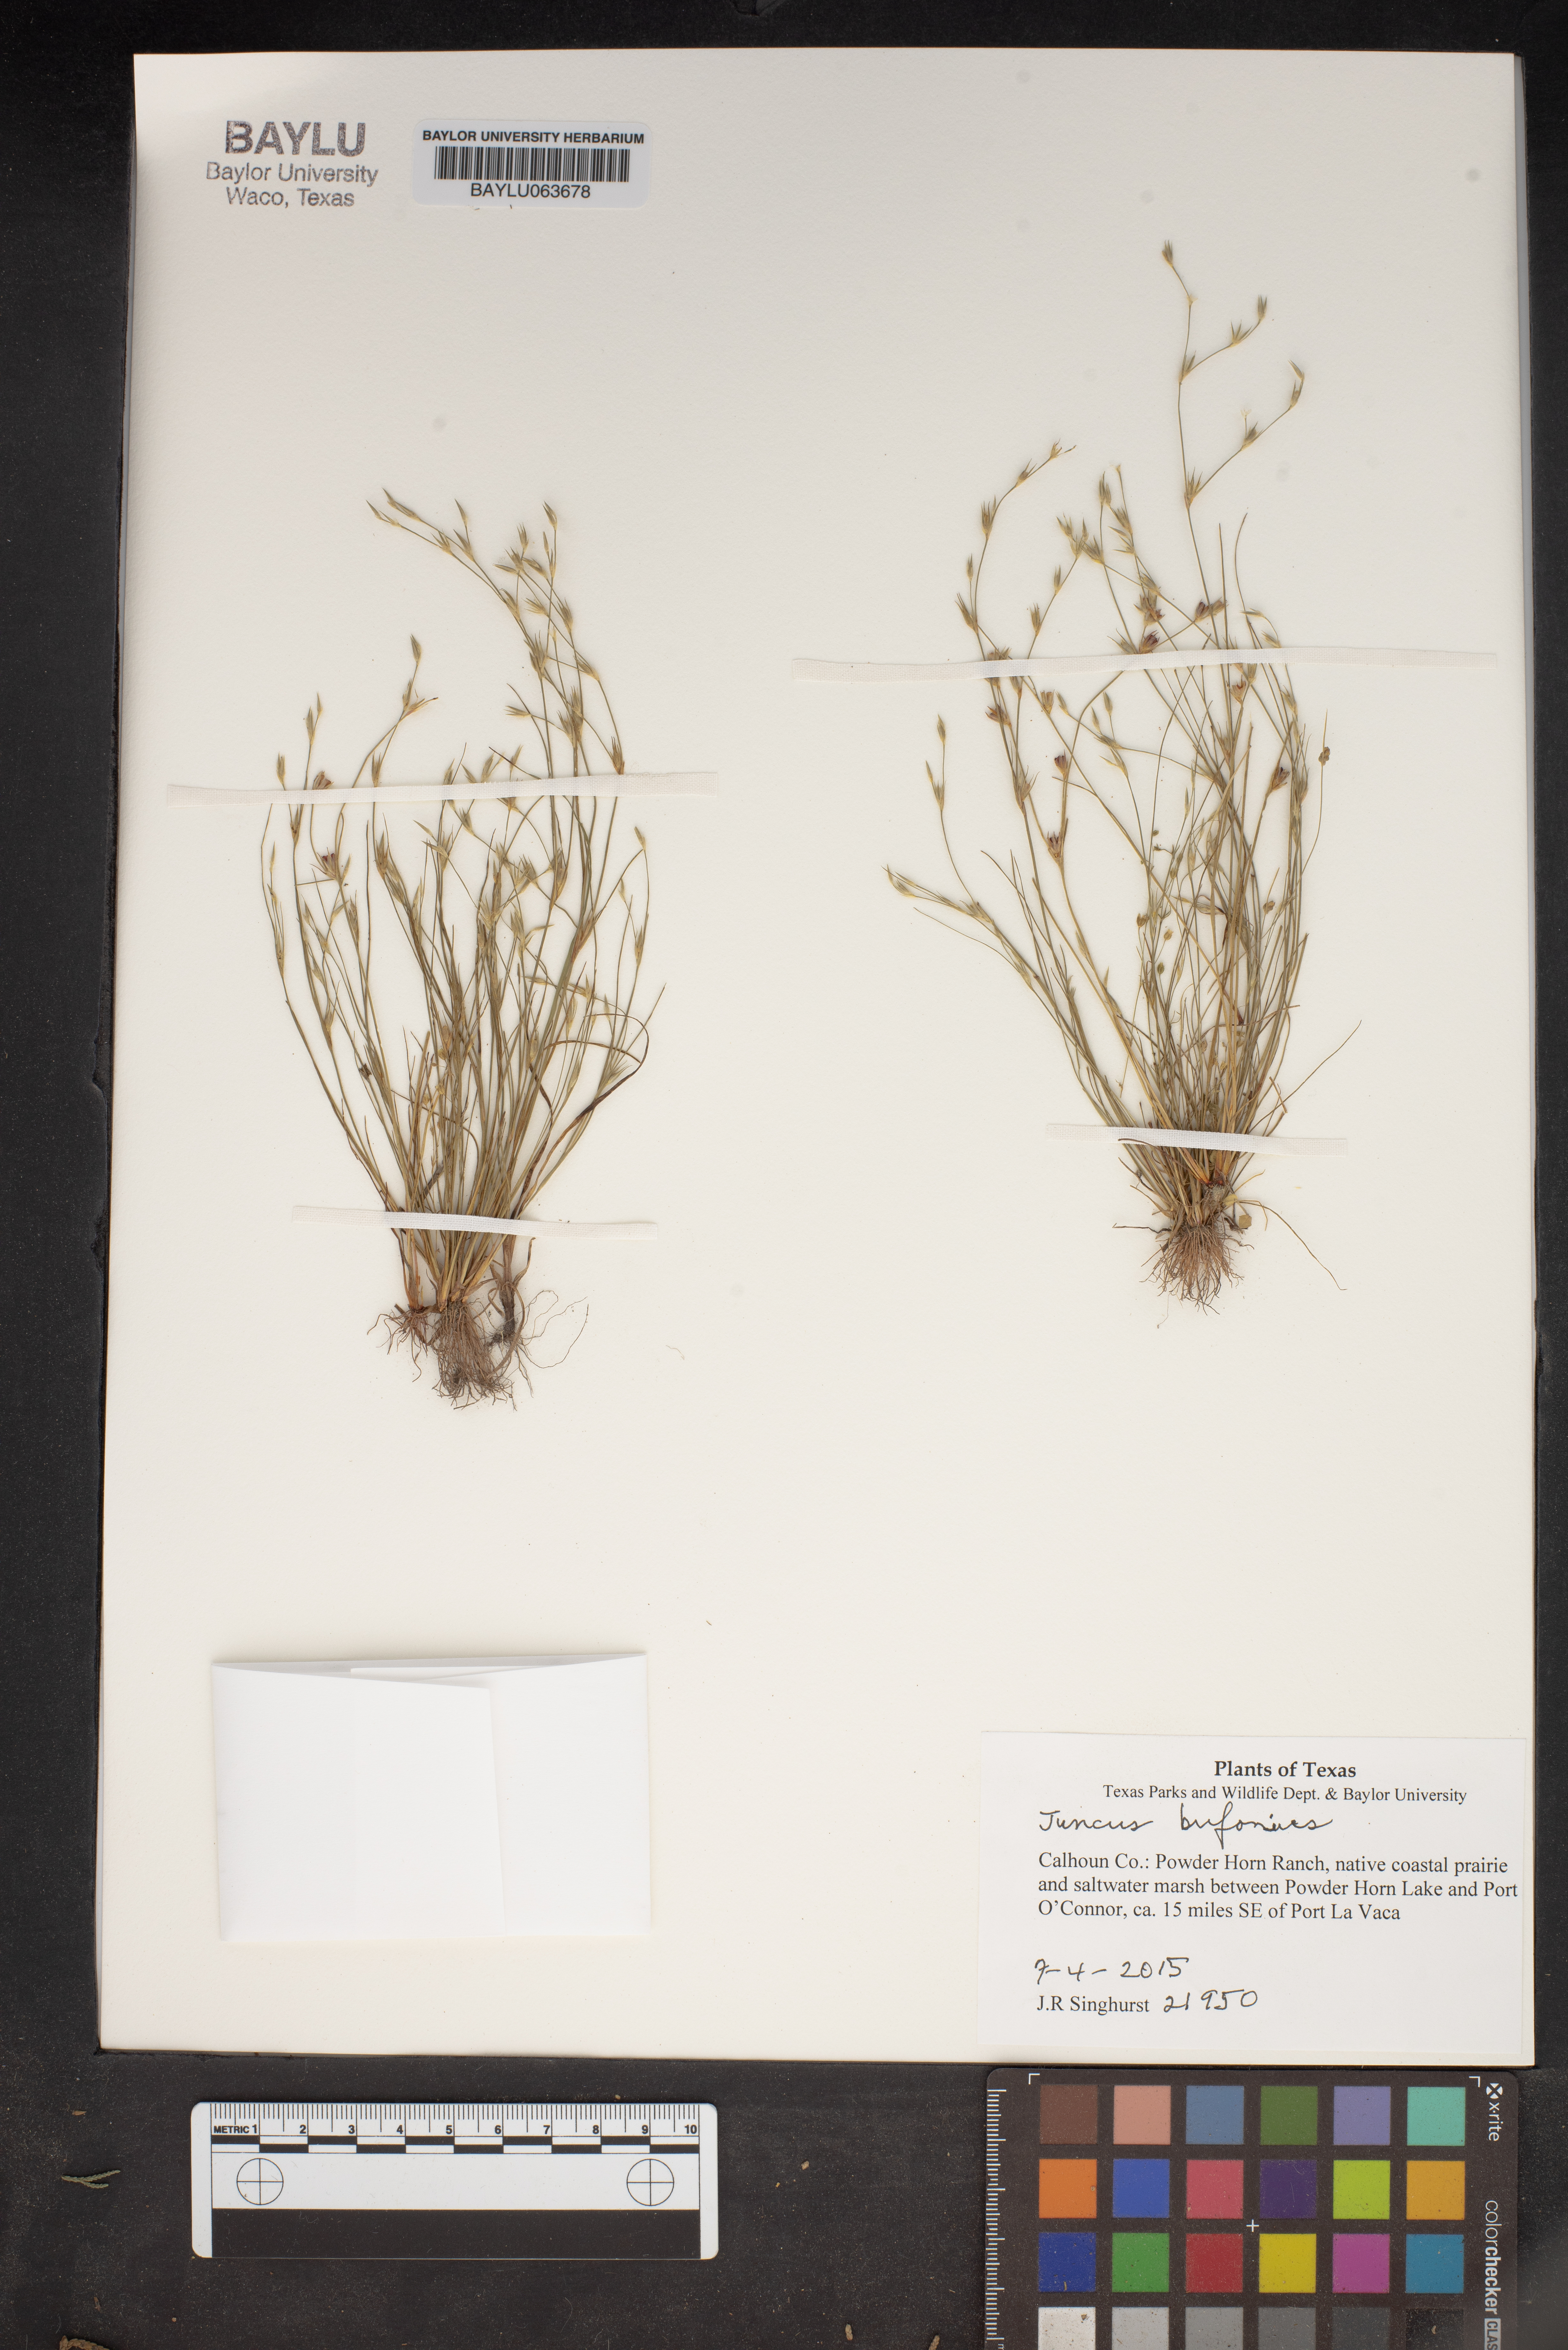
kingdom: Plantae
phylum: Tracheophyta
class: Liliopsida
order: Poales
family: Juncaceae
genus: Juncus
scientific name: Juncus biflorus
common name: Two-flowered rush
